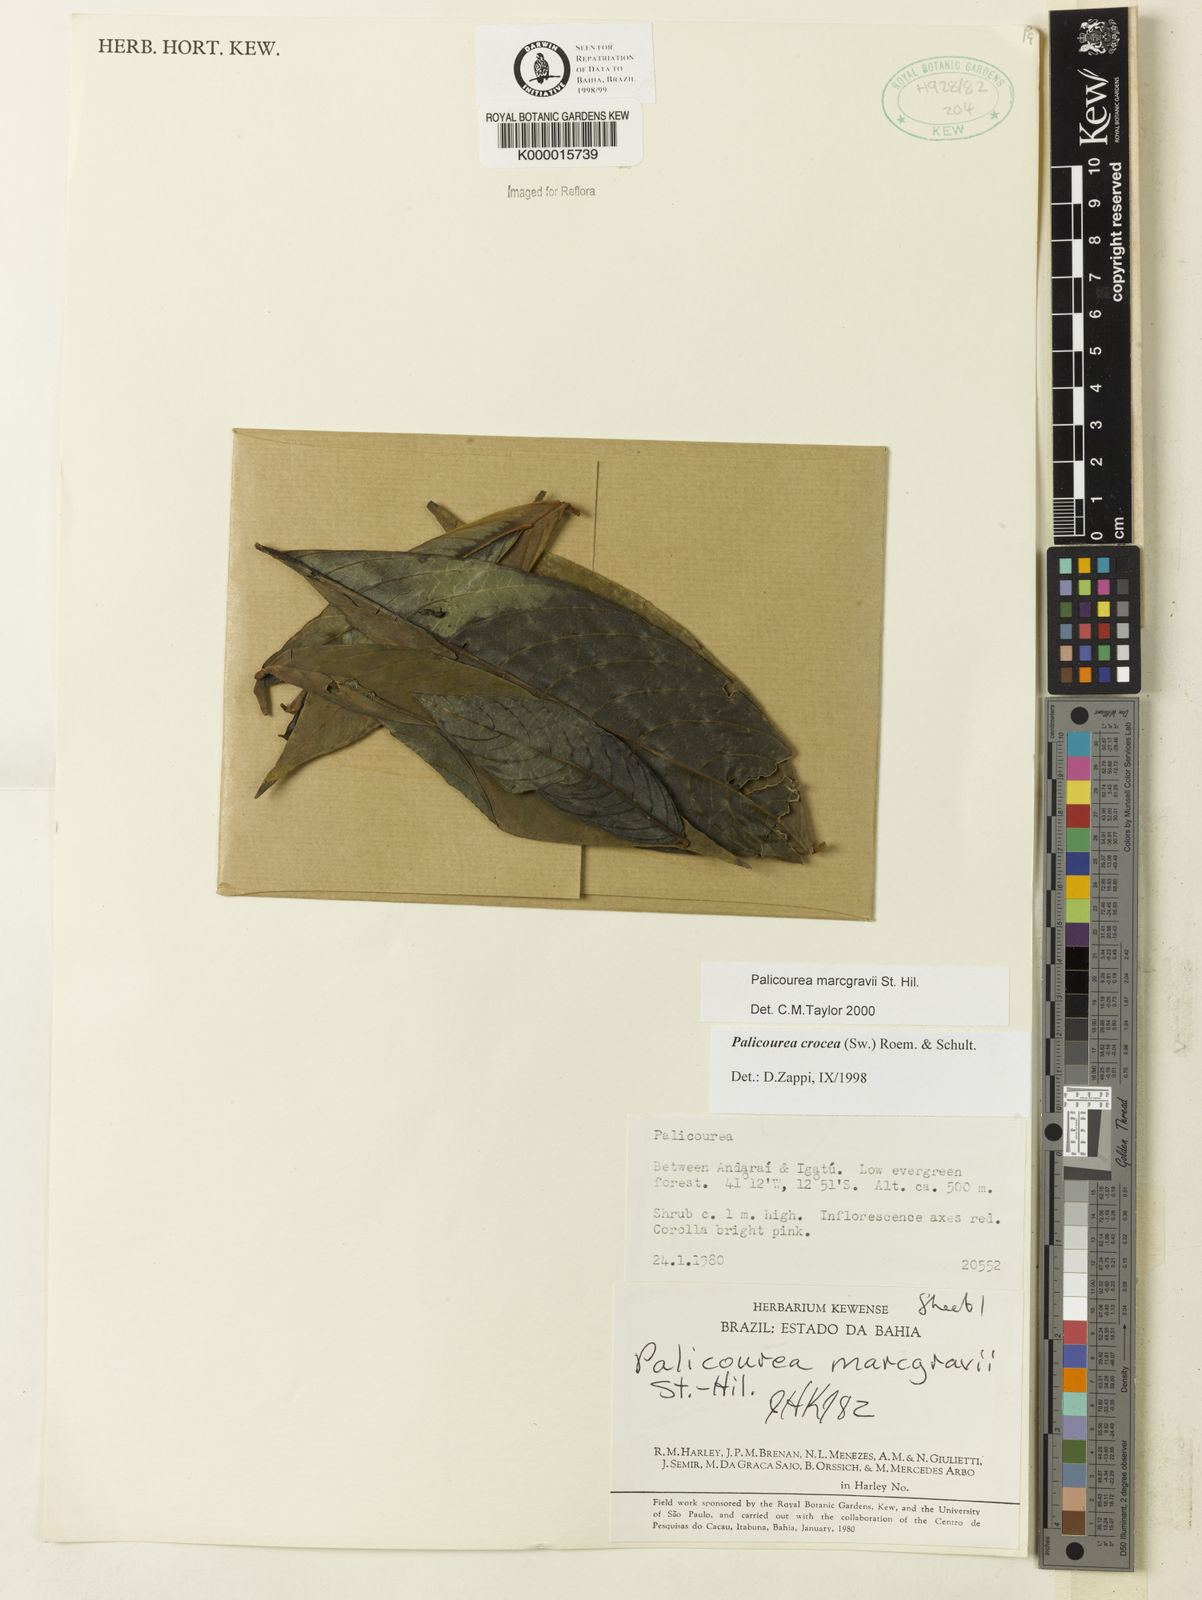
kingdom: Plantae
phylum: Tracheophyta
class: Magnoliopsida
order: Gentianales
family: Rubiaceae
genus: Palicourea
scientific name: Palicourea marcgravii
